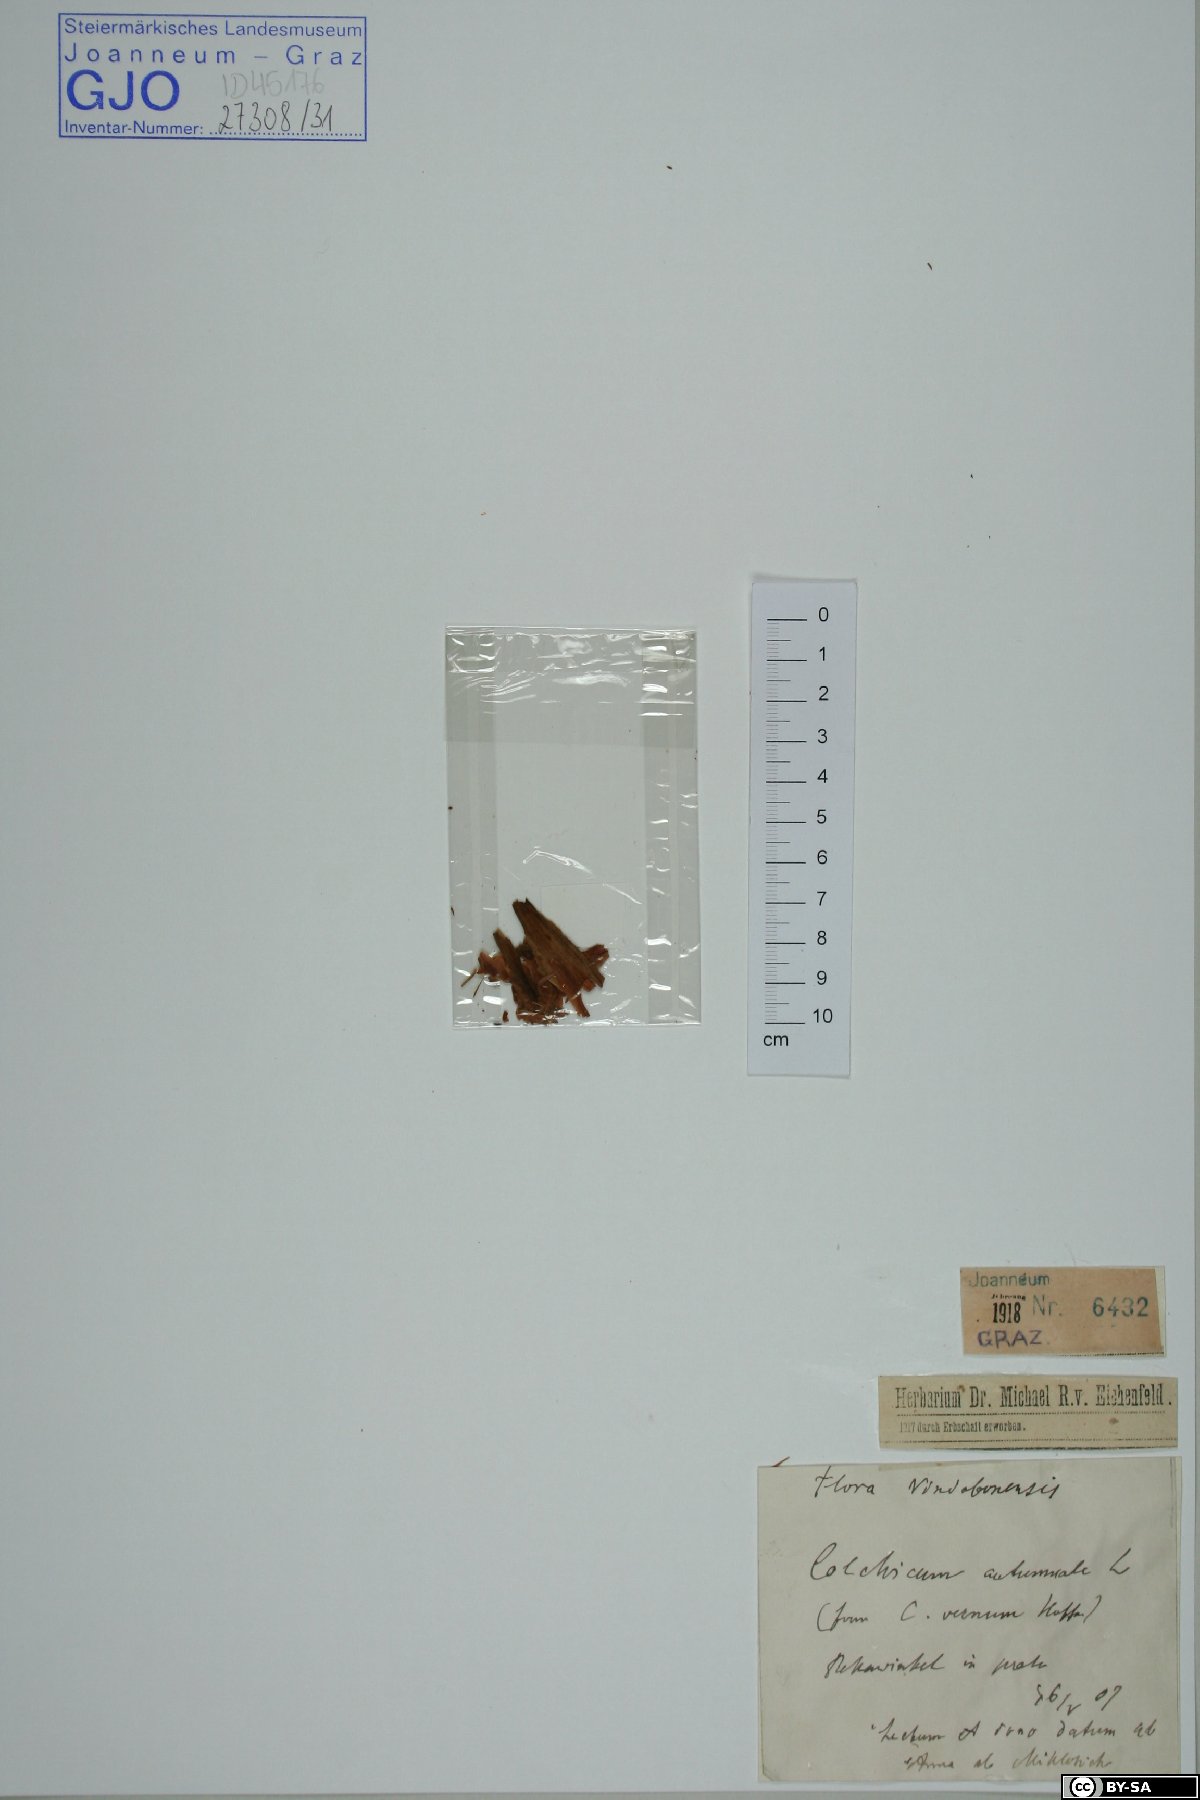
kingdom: Plantae
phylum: Tracheophyta
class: Liliopsida
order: Liliales
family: Colchicaceae
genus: Colchicum
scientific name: Colchicum autumnale
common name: Autumn crocus
